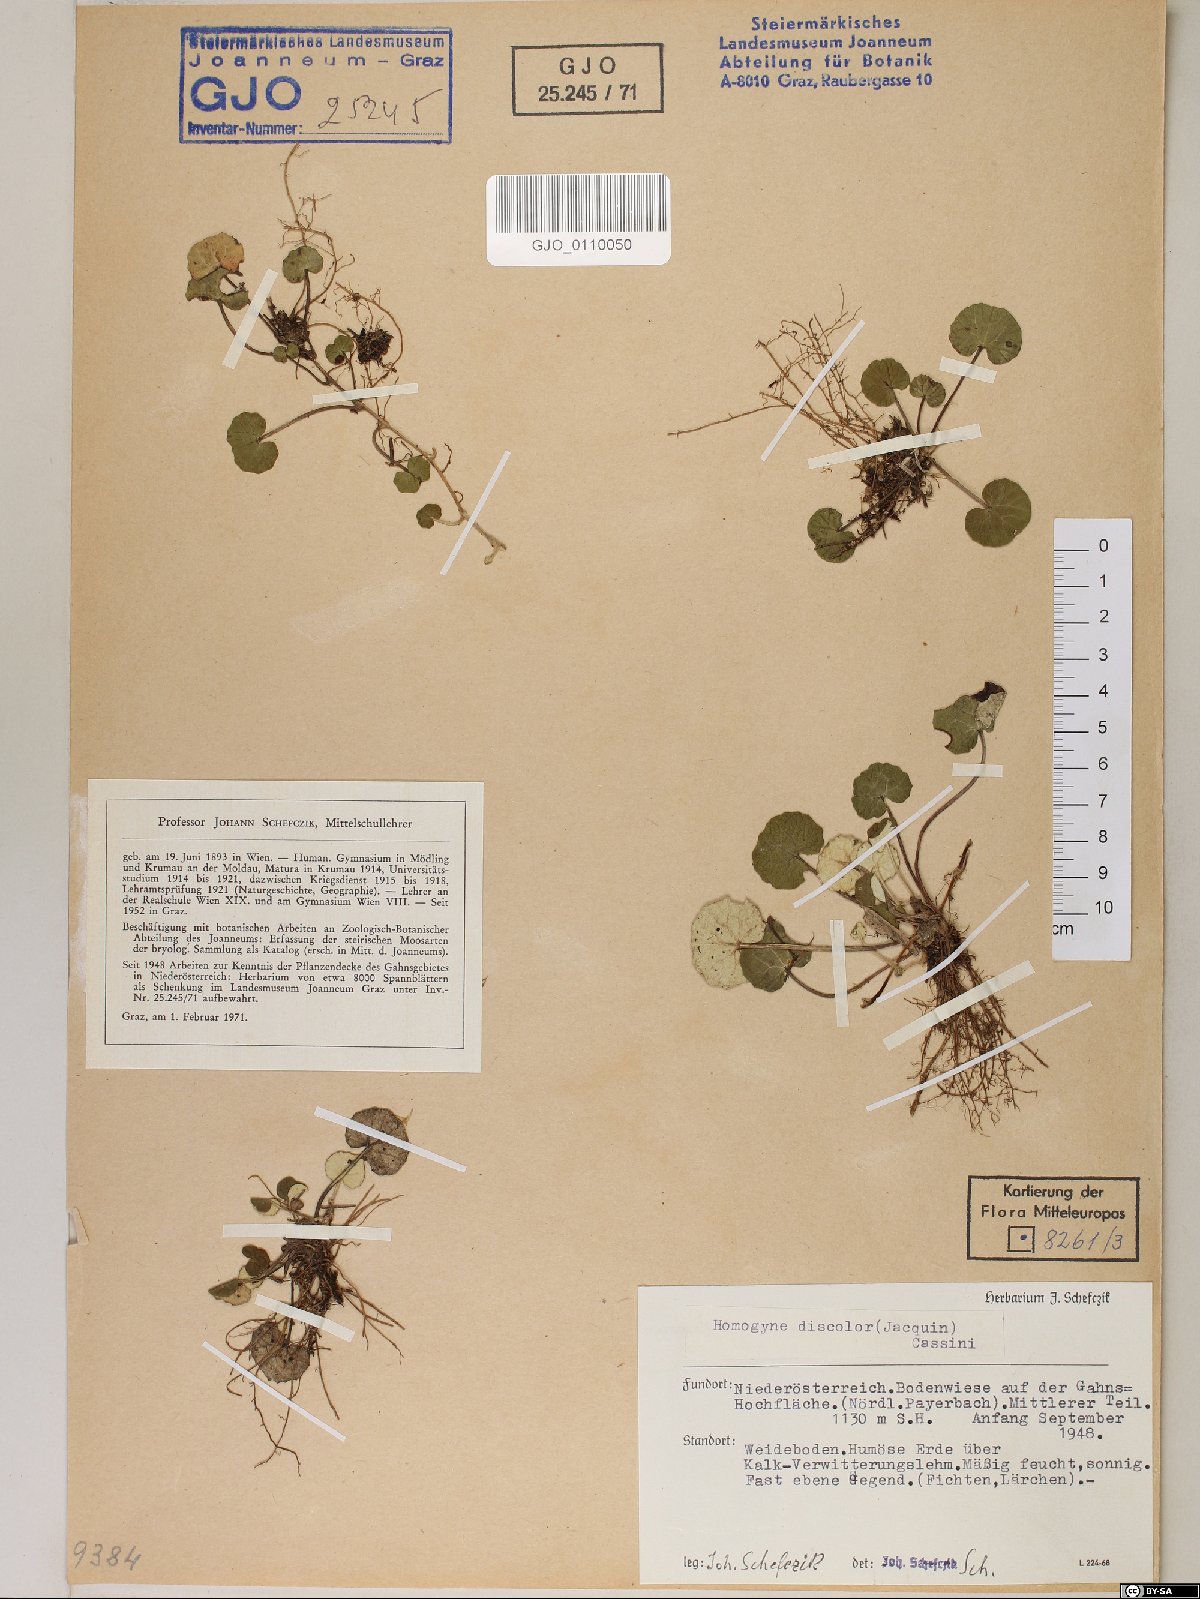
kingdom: Plantae
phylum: Tracheophyta
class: Magnoliopsida
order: Asterales
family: Asteraceae
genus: Homogyne
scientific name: Homogyne discolor
